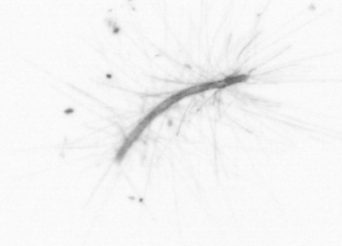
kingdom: Chromista
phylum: Ochrophyta
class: Bacillariophyceae
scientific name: Bacillariophyceae
